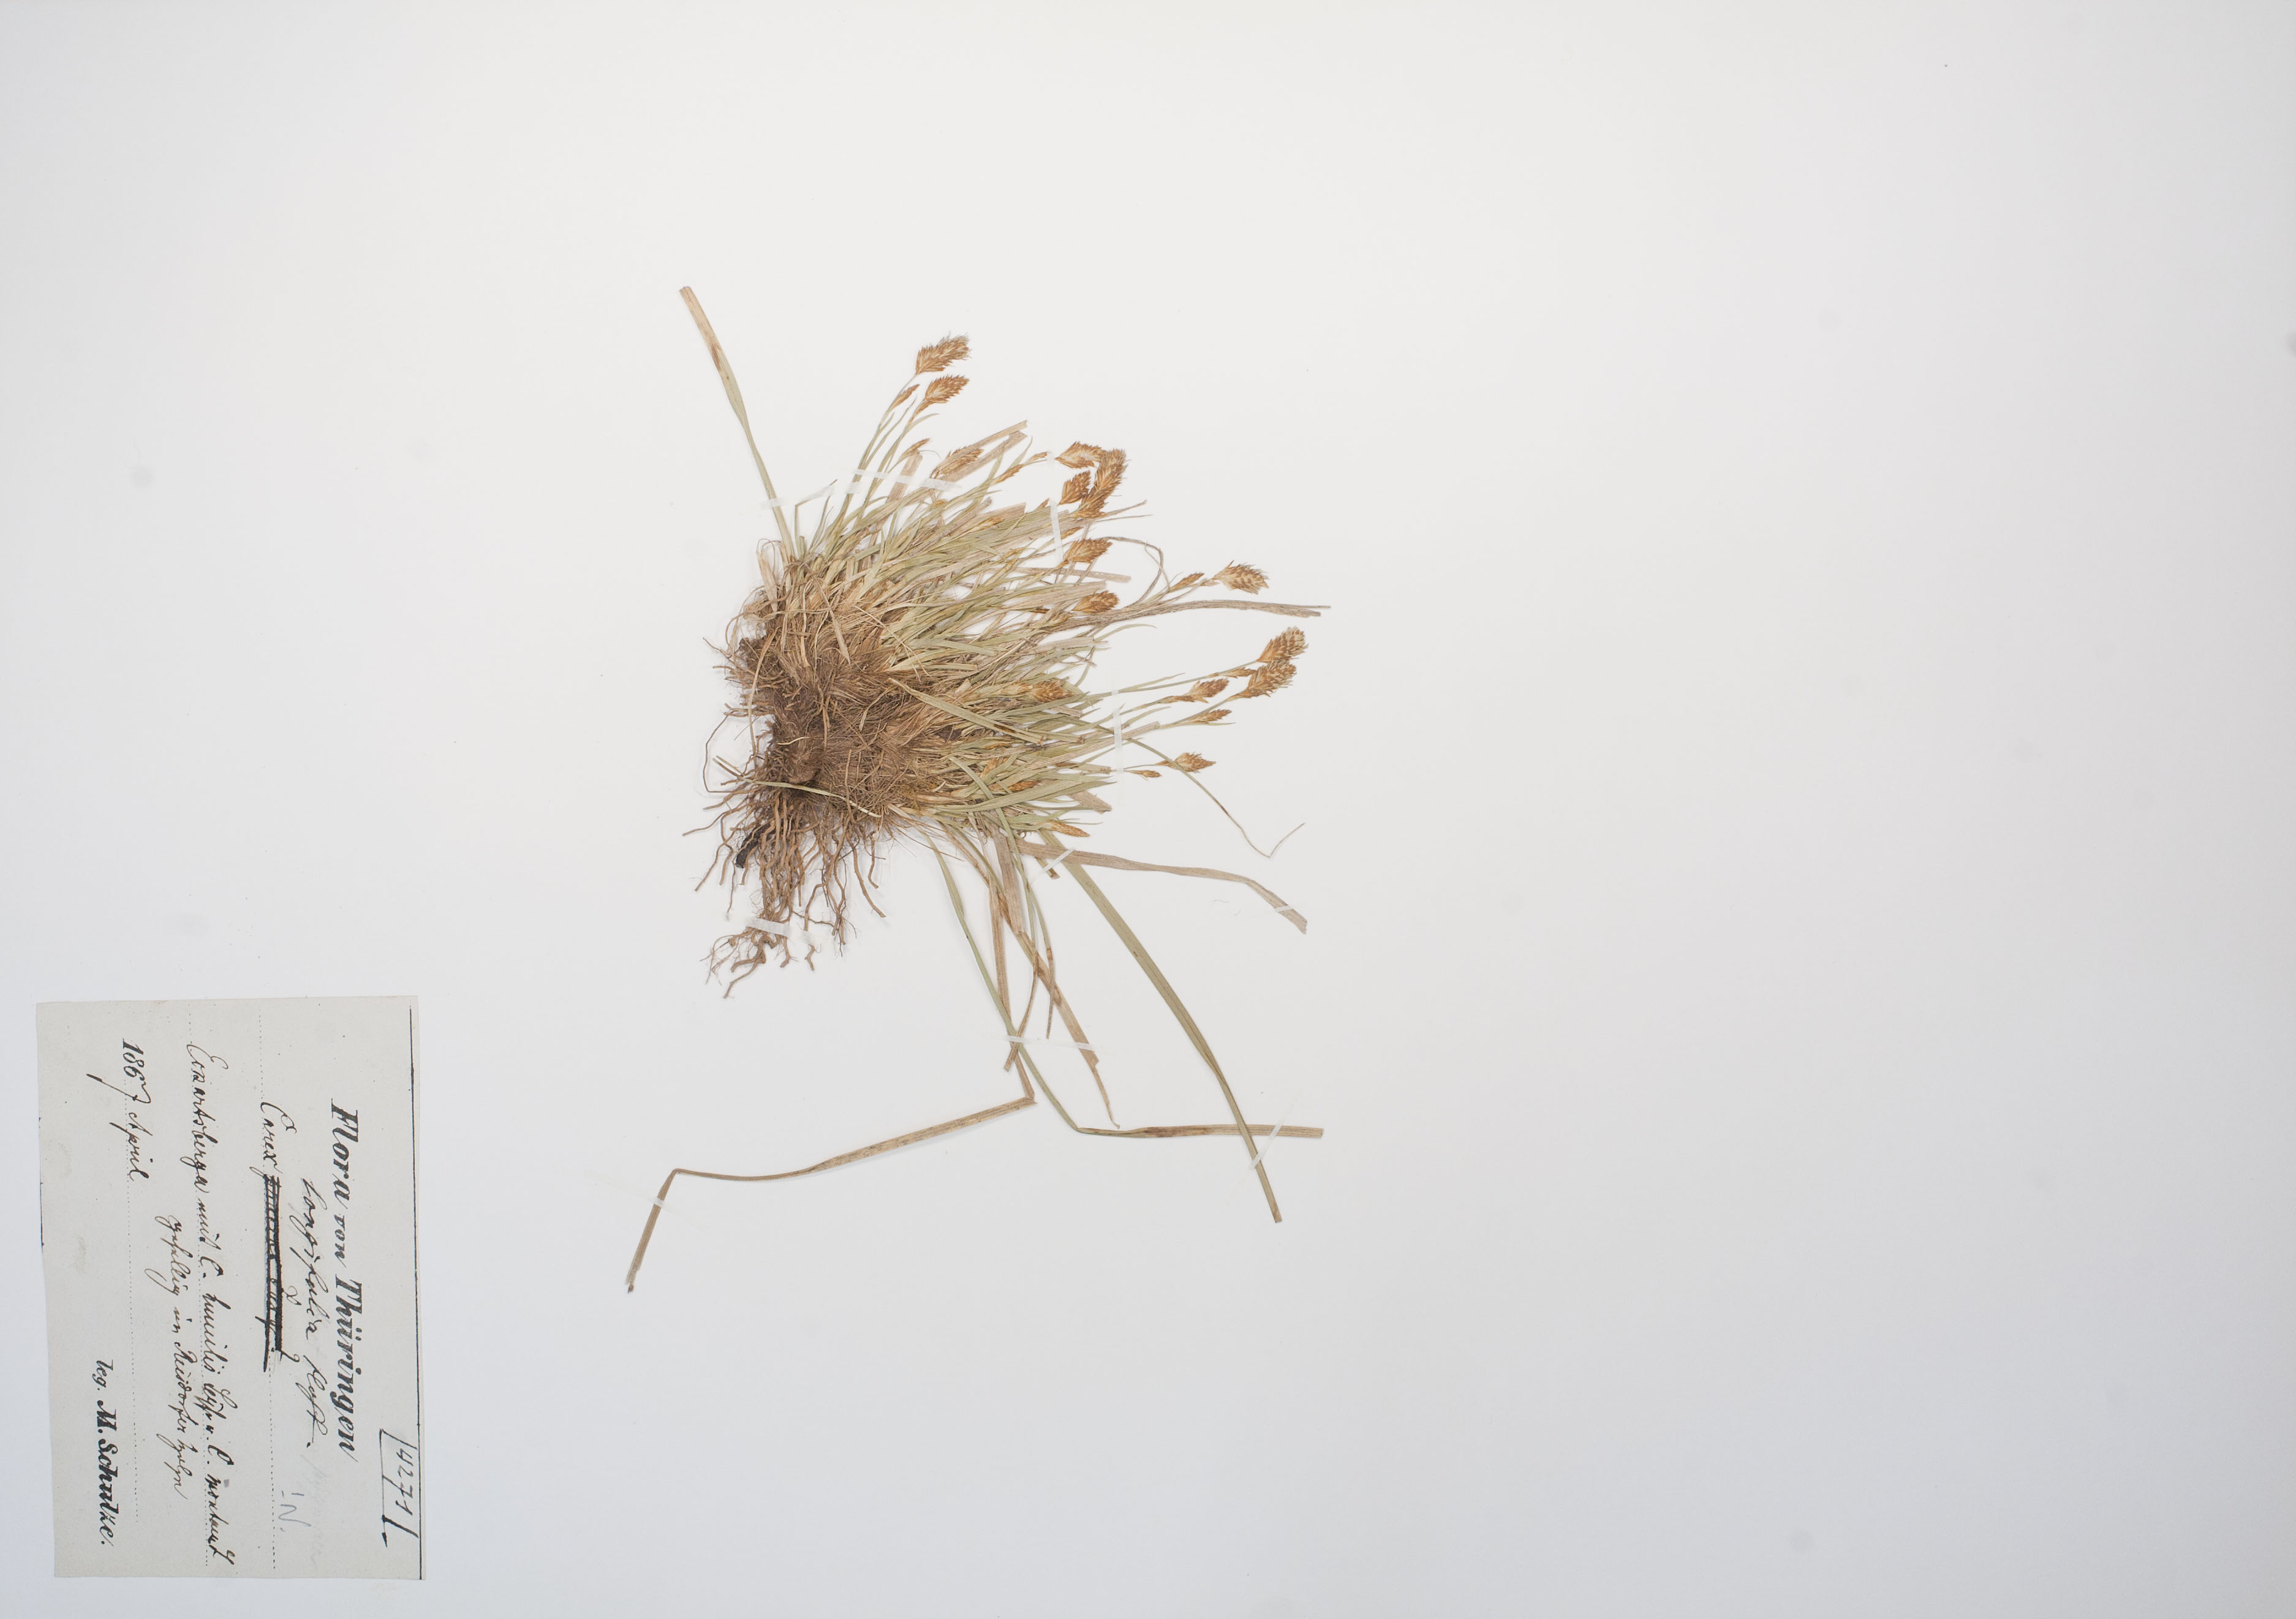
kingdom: Plantae
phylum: Tracheophyta
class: Liliopsida
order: Poales
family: Cyperaceae
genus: Carex
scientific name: Carex umbrosa
